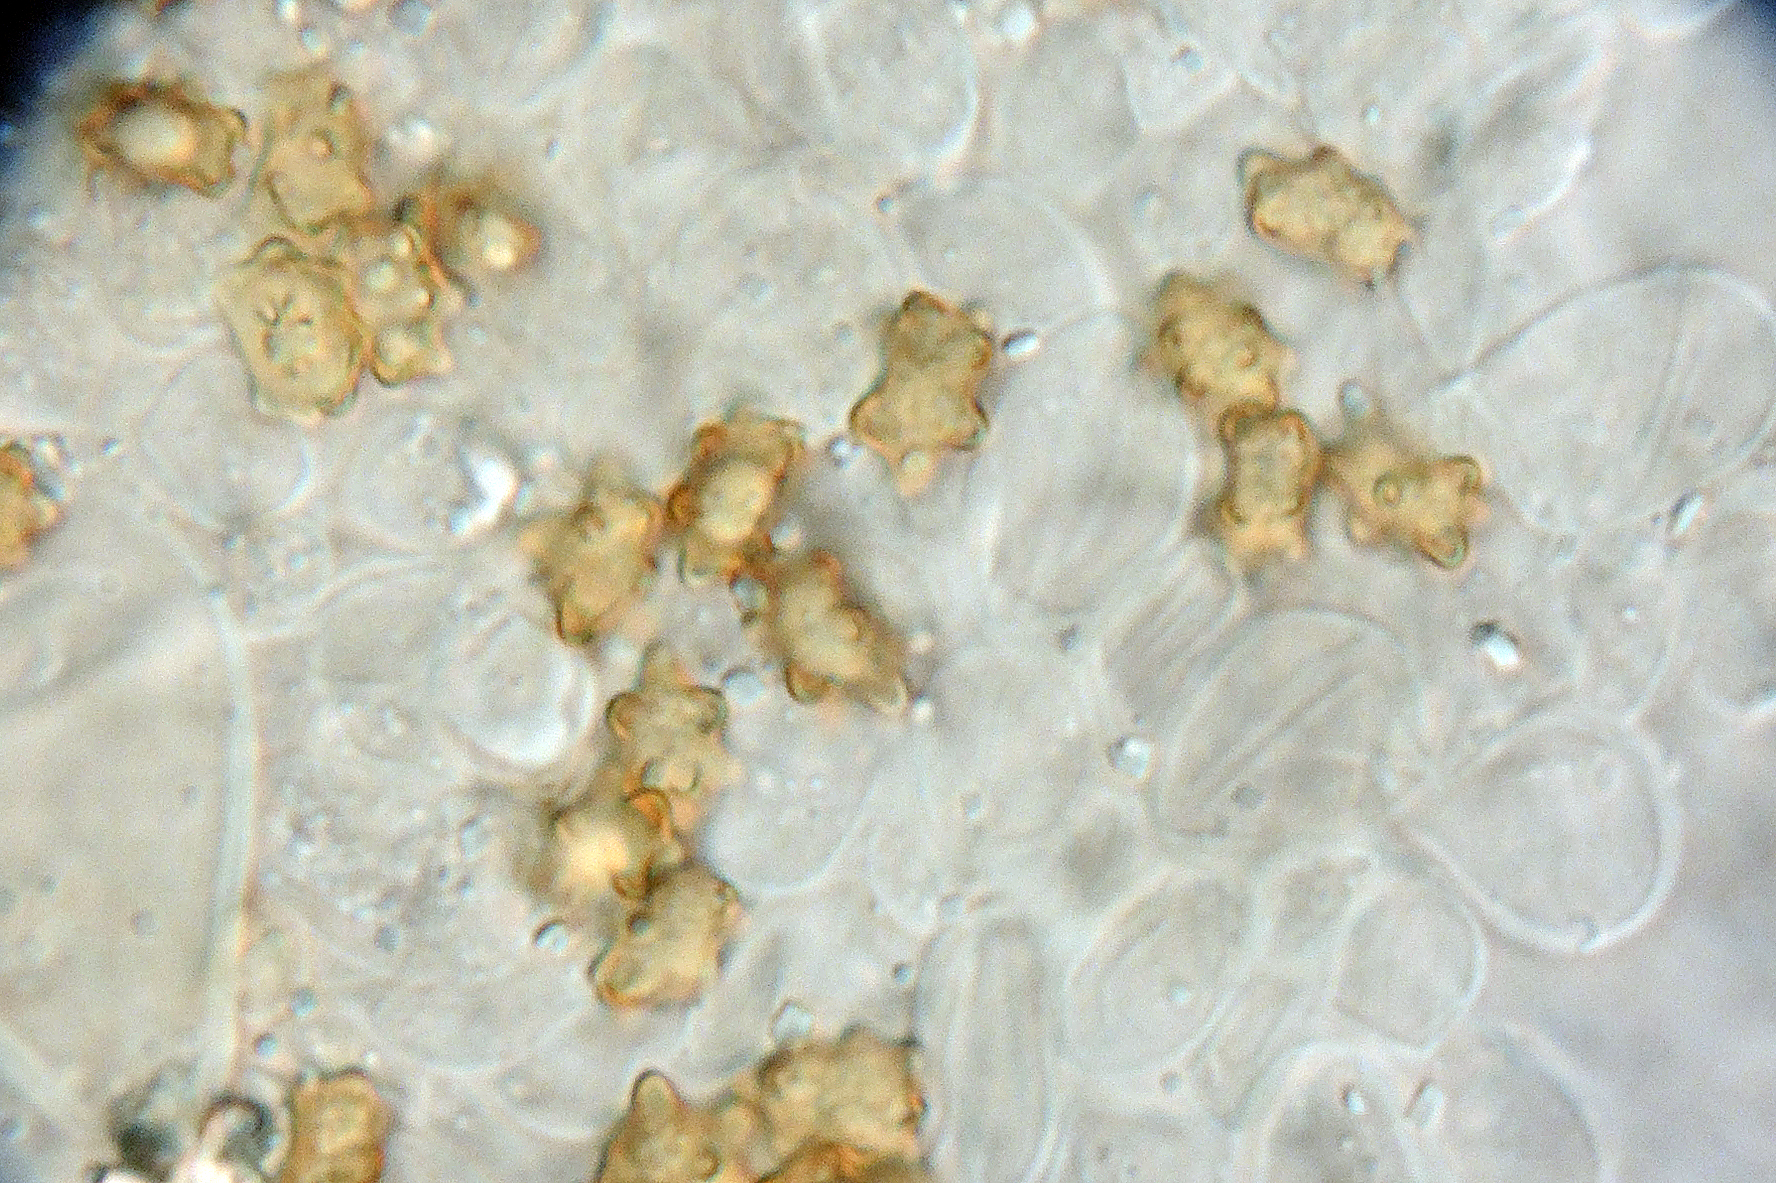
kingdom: Fungi
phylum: Basidiomycota
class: Agaricomycetes
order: Agaricales
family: Inocybaceae
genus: Inocybe
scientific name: Inocybe mixtilis
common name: randknoldet trævlhat
